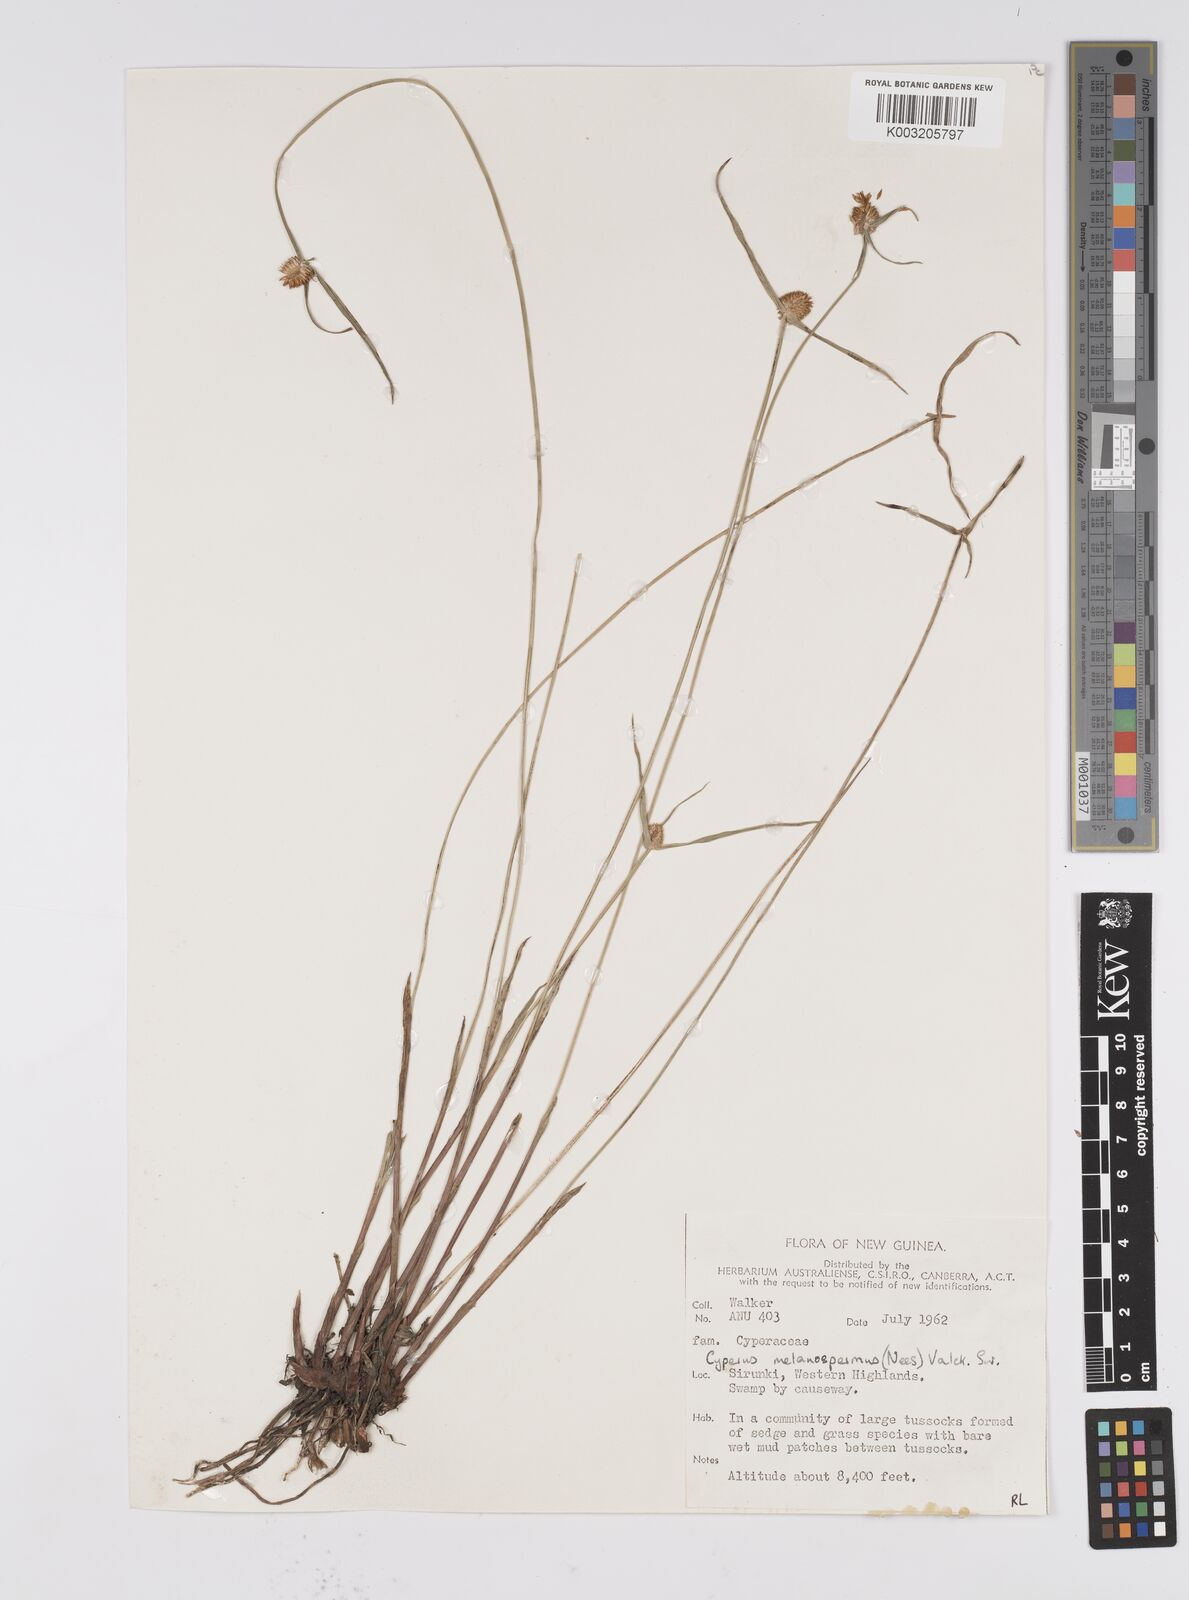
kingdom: Plantae
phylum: Tracheophyta
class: Liliopsida
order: Poales
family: Cyperaceae
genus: Cyperus
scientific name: Cyperus melanospermus
